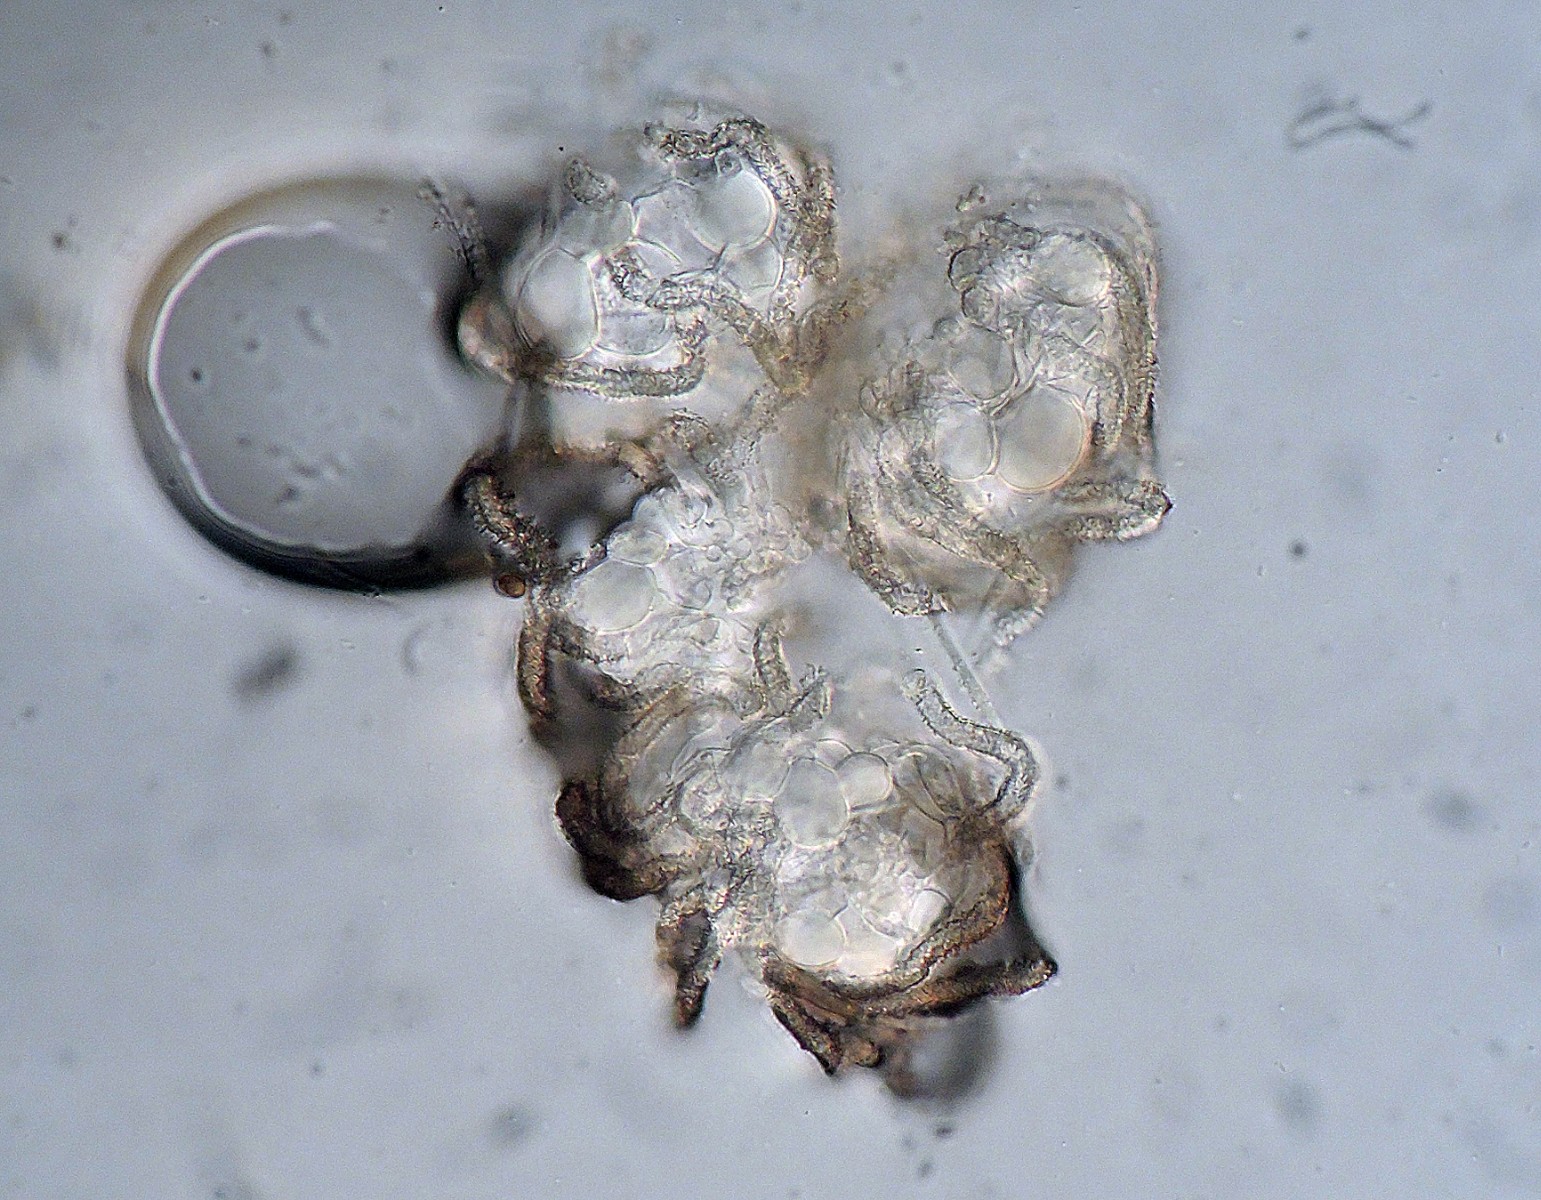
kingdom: Fungi
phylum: Basidiomycota
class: Agaricomycetes
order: Agaricales
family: Niaceae
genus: Peyronelina
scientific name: Peyronelina glomerulata
